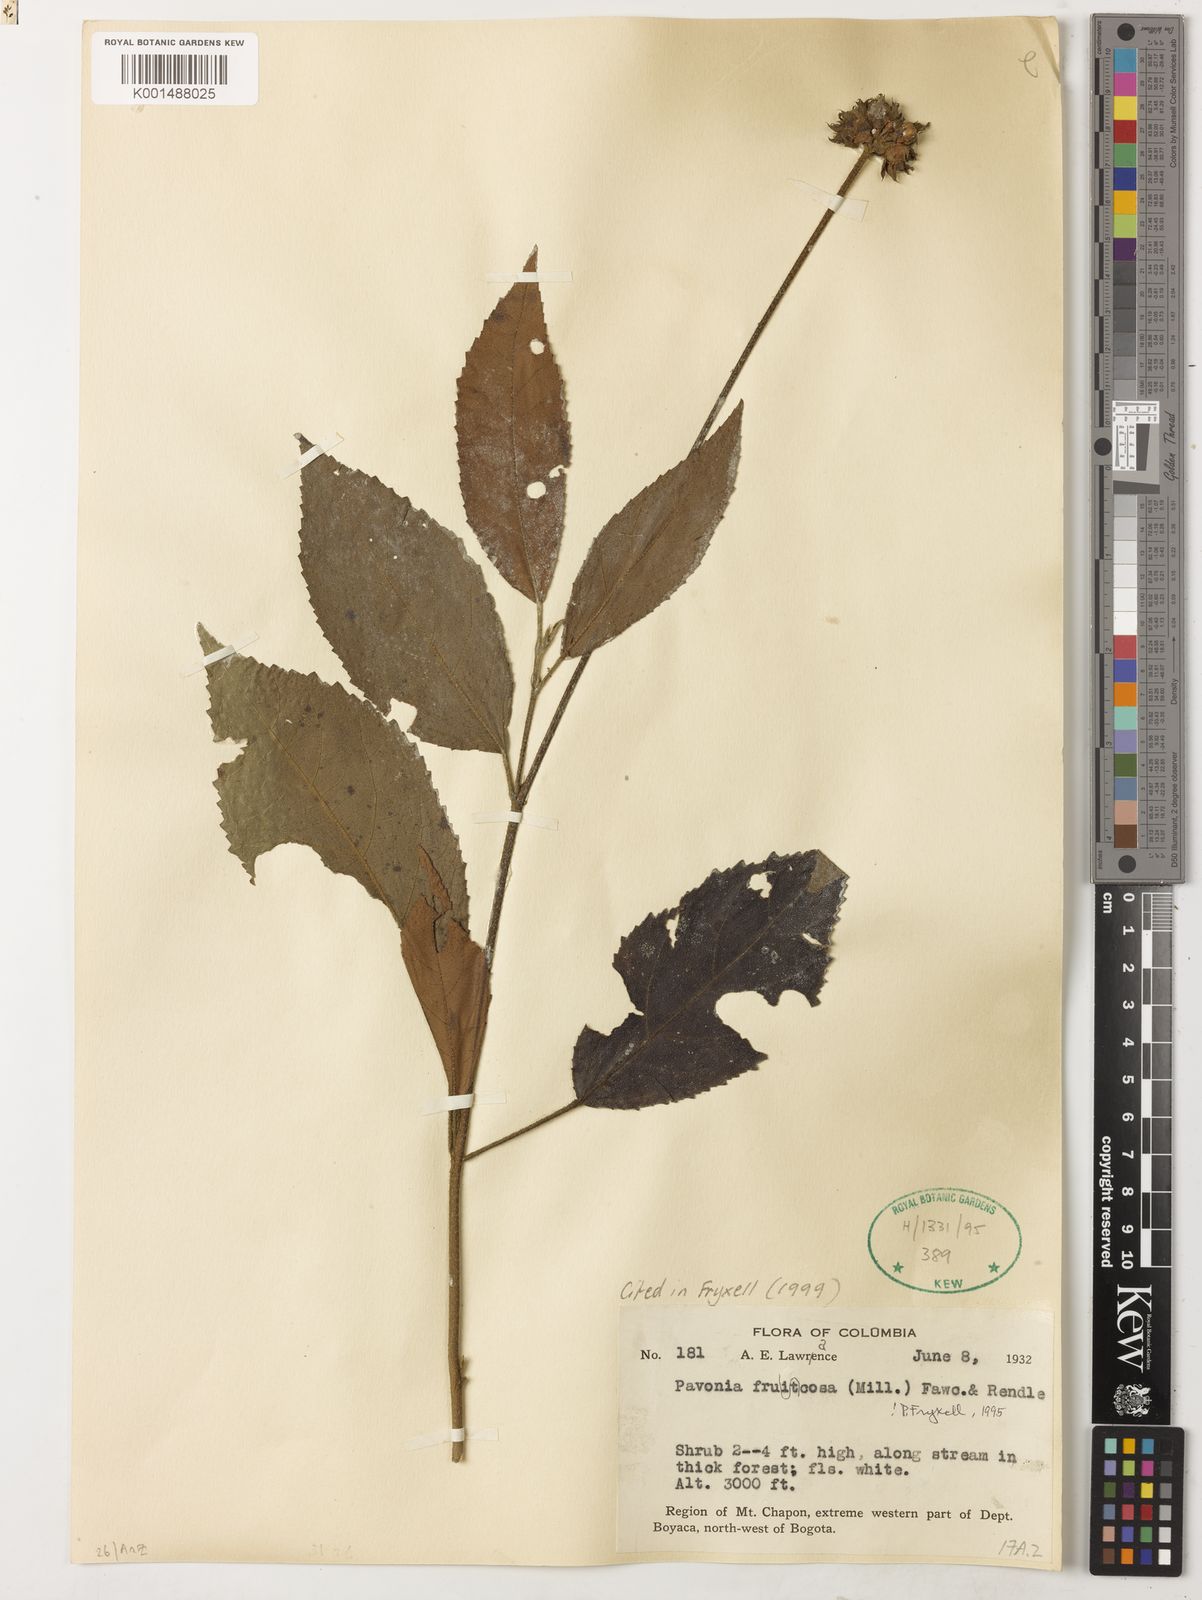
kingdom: Plantae
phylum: Tracheophyta
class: Magnoliopsida
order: Malvales
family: Malvaceae
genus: Pavonia
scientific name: Pavonia fruticosa
